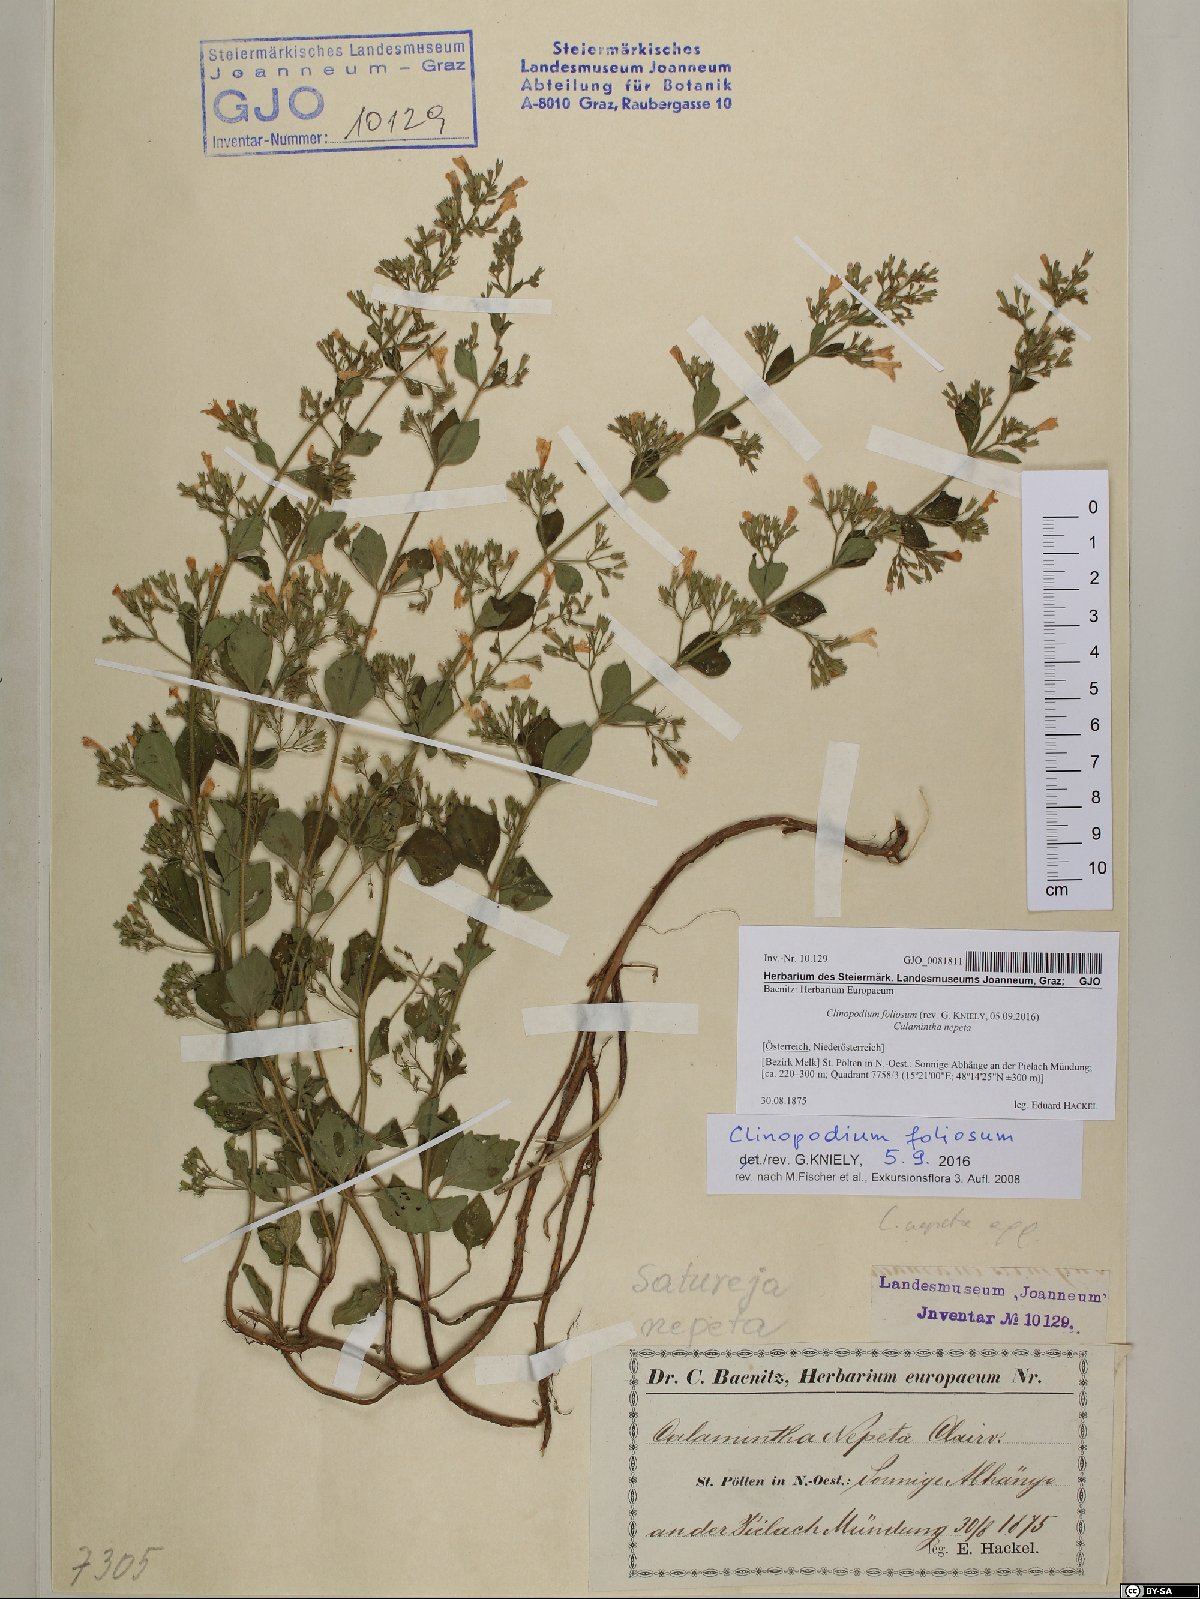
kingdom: Plantae
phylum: Tracheophyta
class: Magnoliopsida
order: Lamiales
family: Lamiaceae
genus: Clinopodium
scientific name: Clinopodium foliolosum
